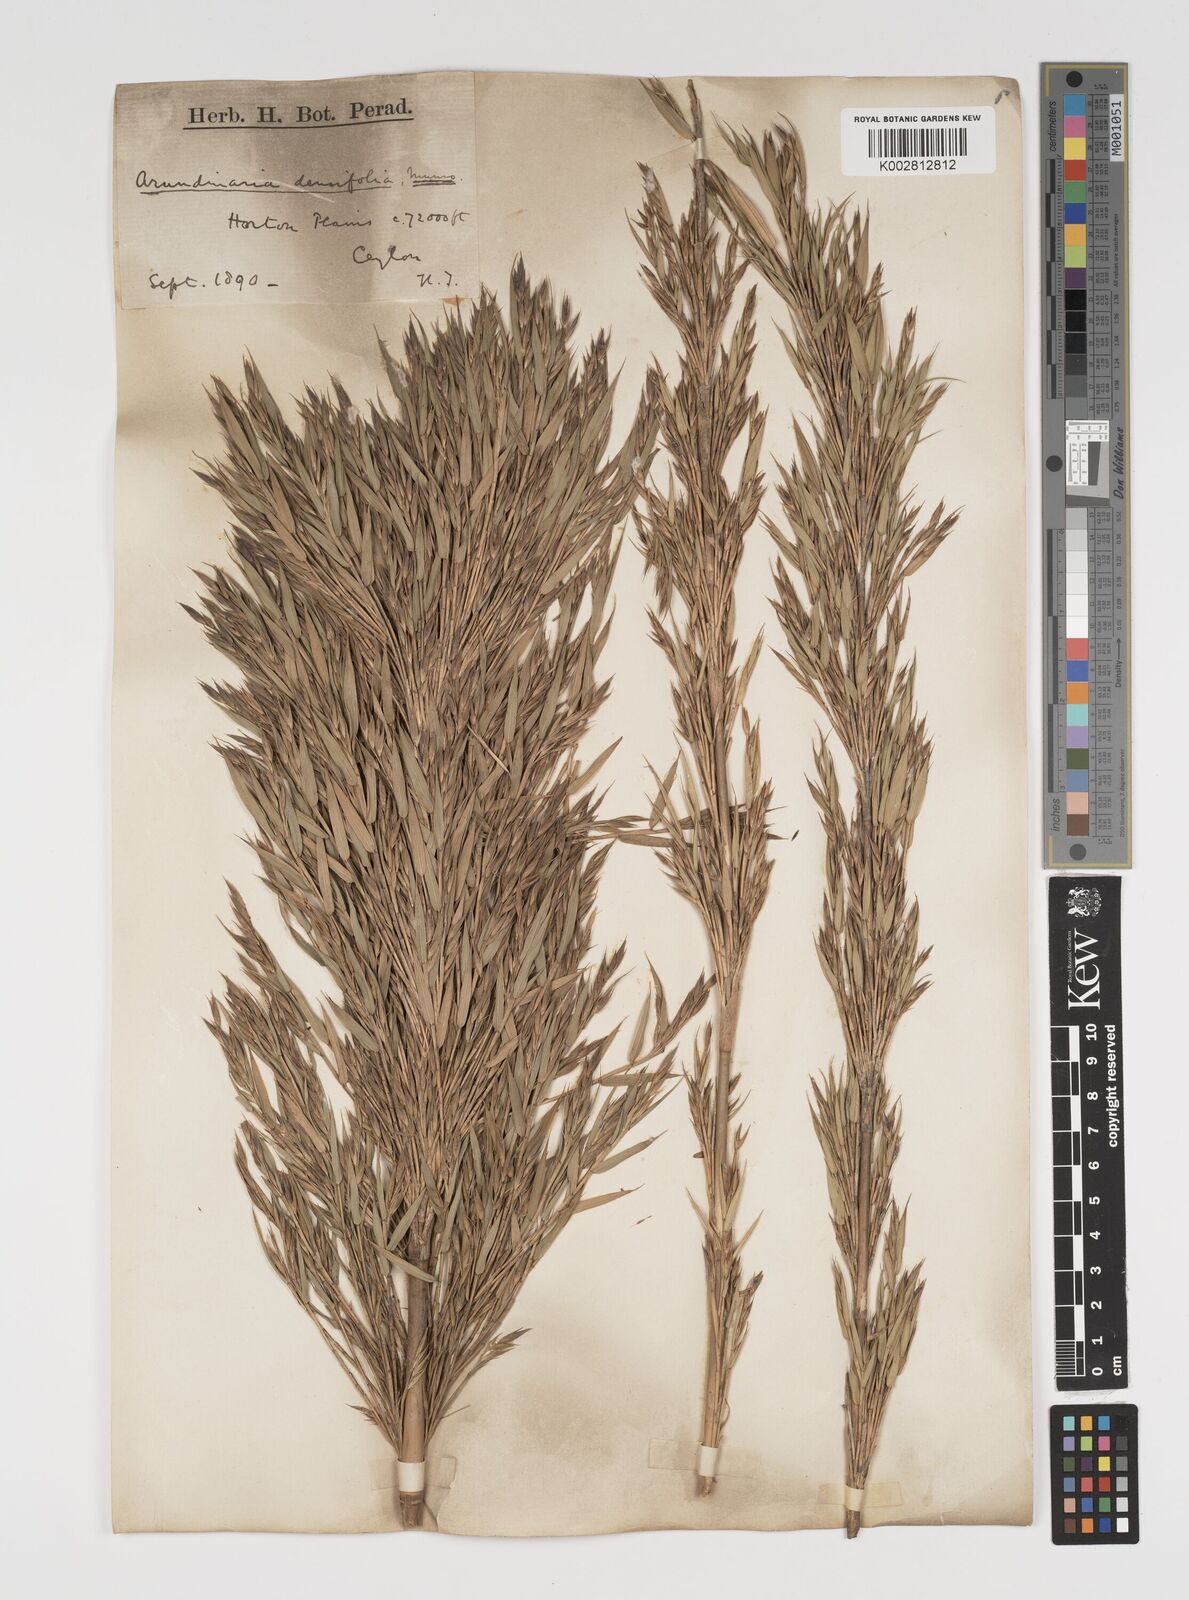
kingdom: Plantae
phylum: Tracheophyta
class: Liliopsida
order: Poales
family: Poaceae
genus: Kuruna
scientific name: Kuruna densifolia
